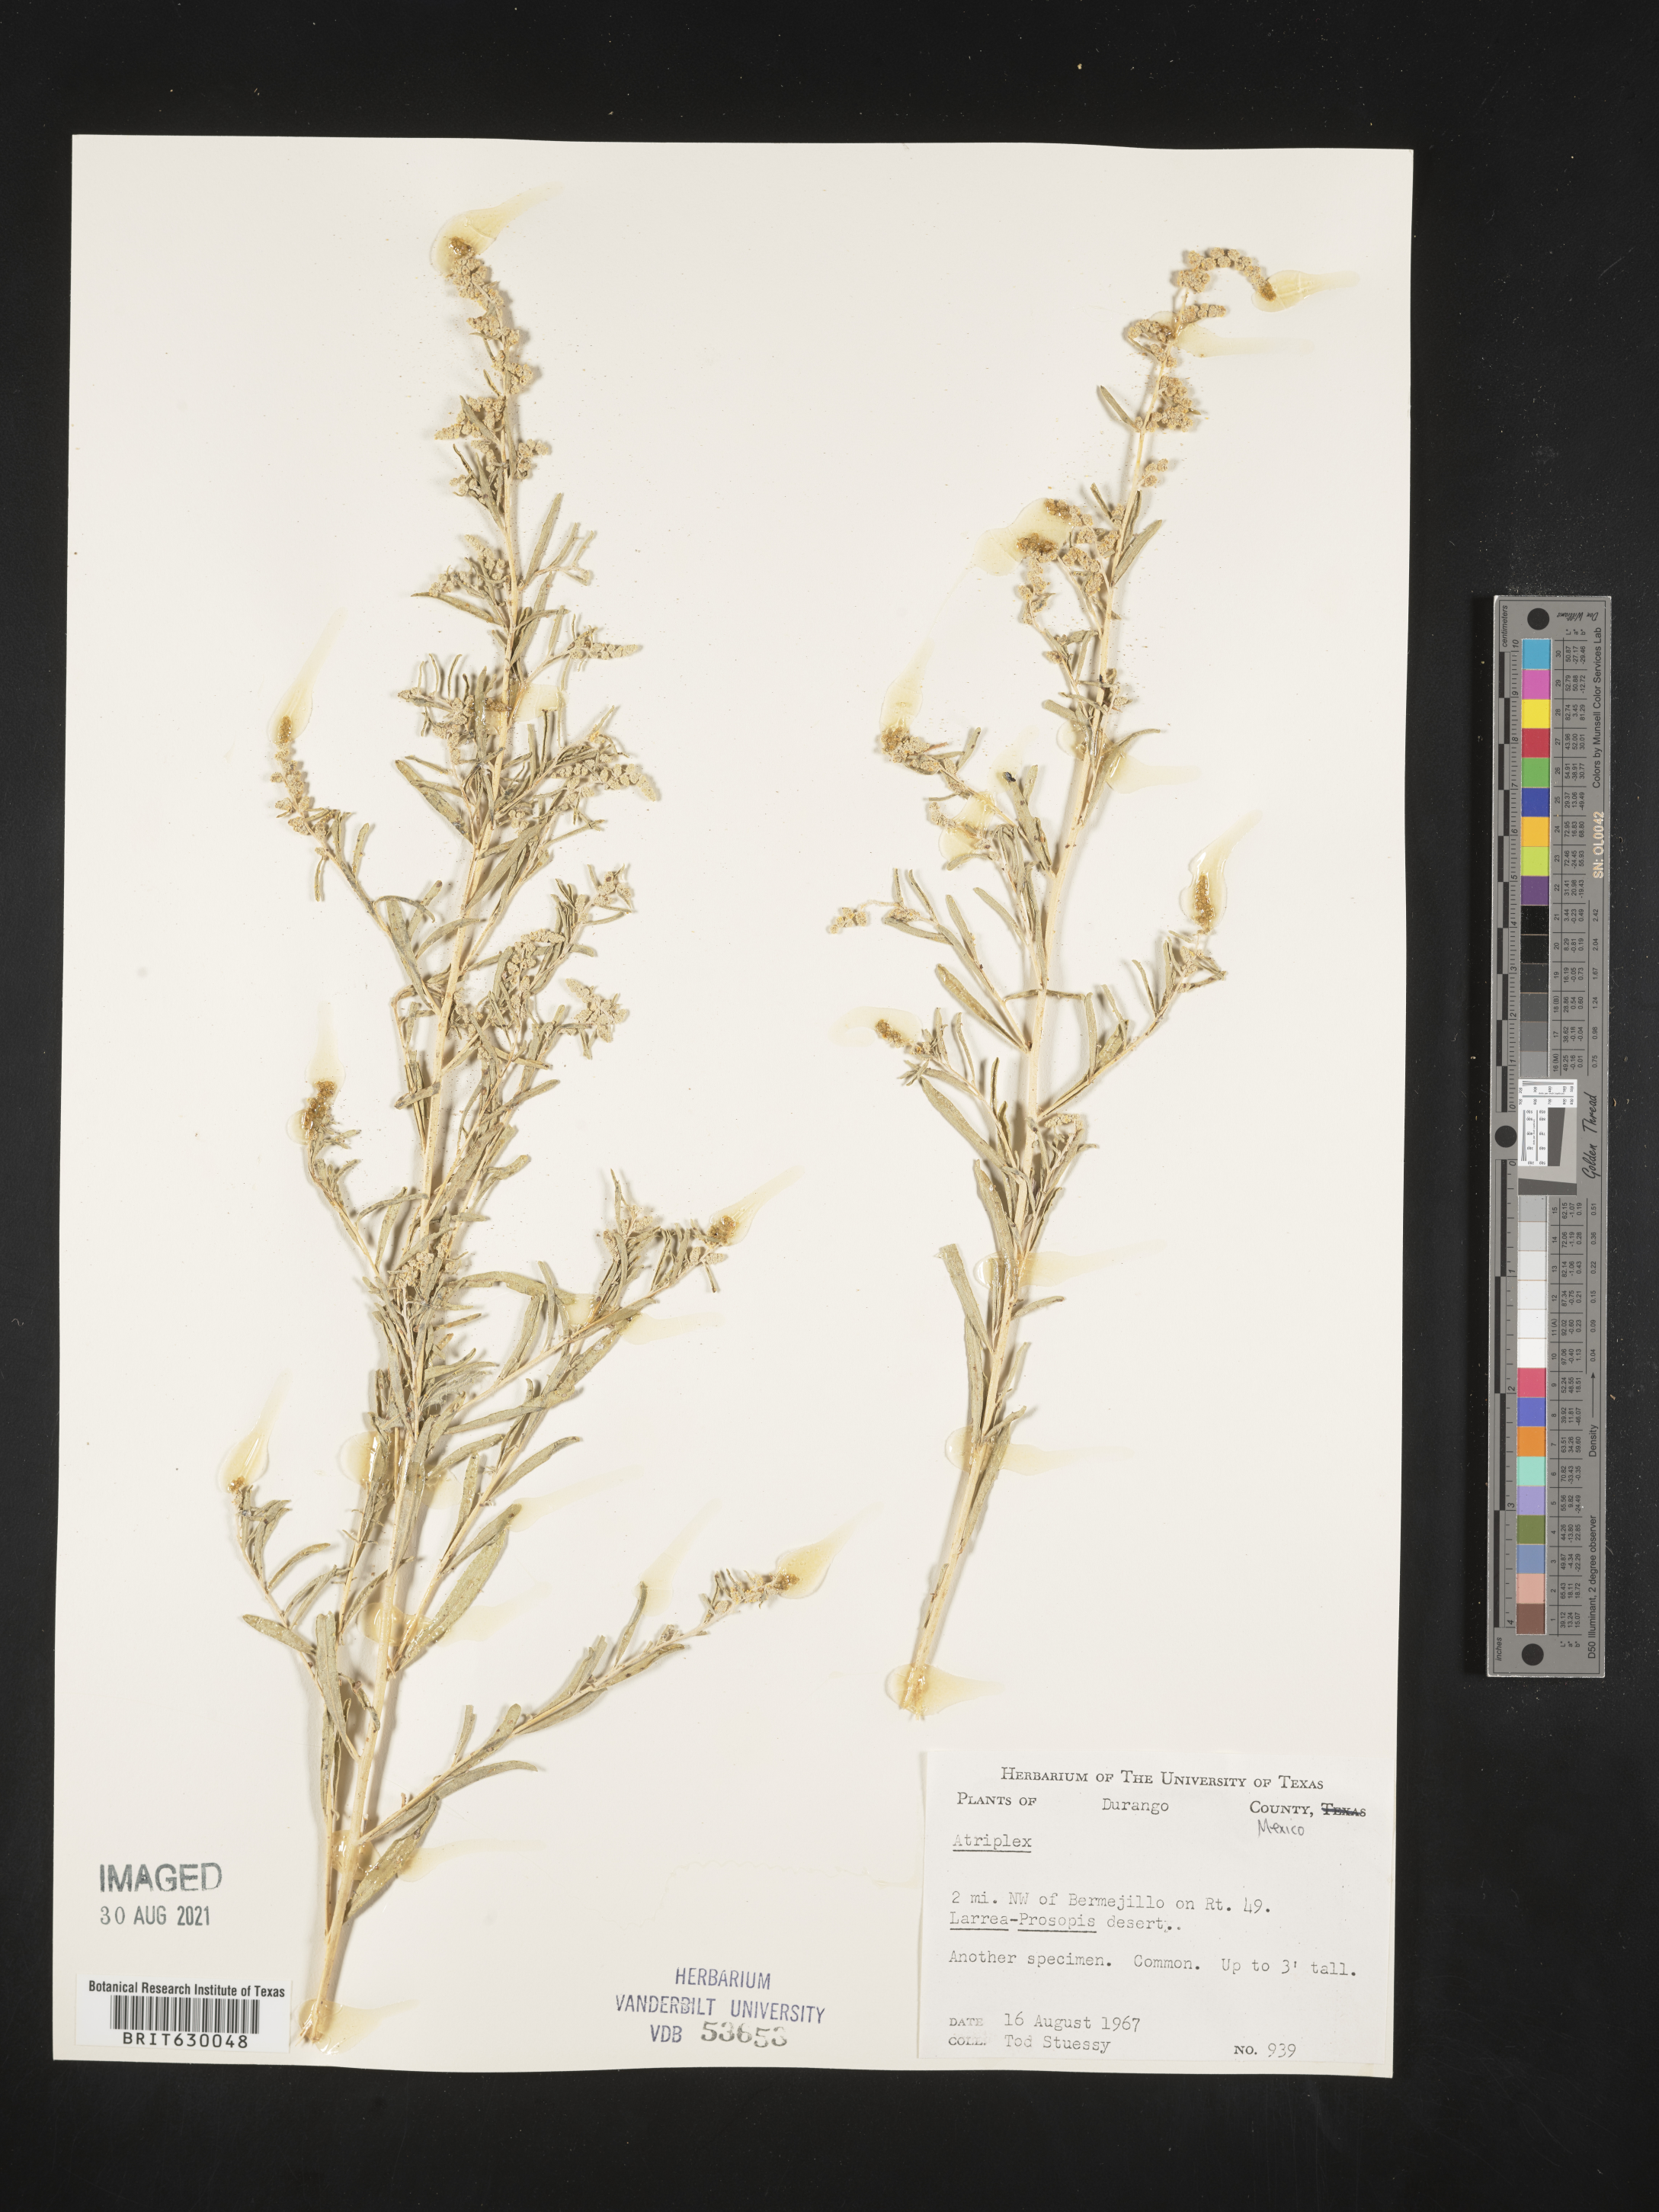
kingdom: Plantae
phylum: Tracheophyta
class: Magnoliopsida
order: Caryophyllales
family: Amaranthaceae
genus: Atriplex
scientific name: Atriplex
